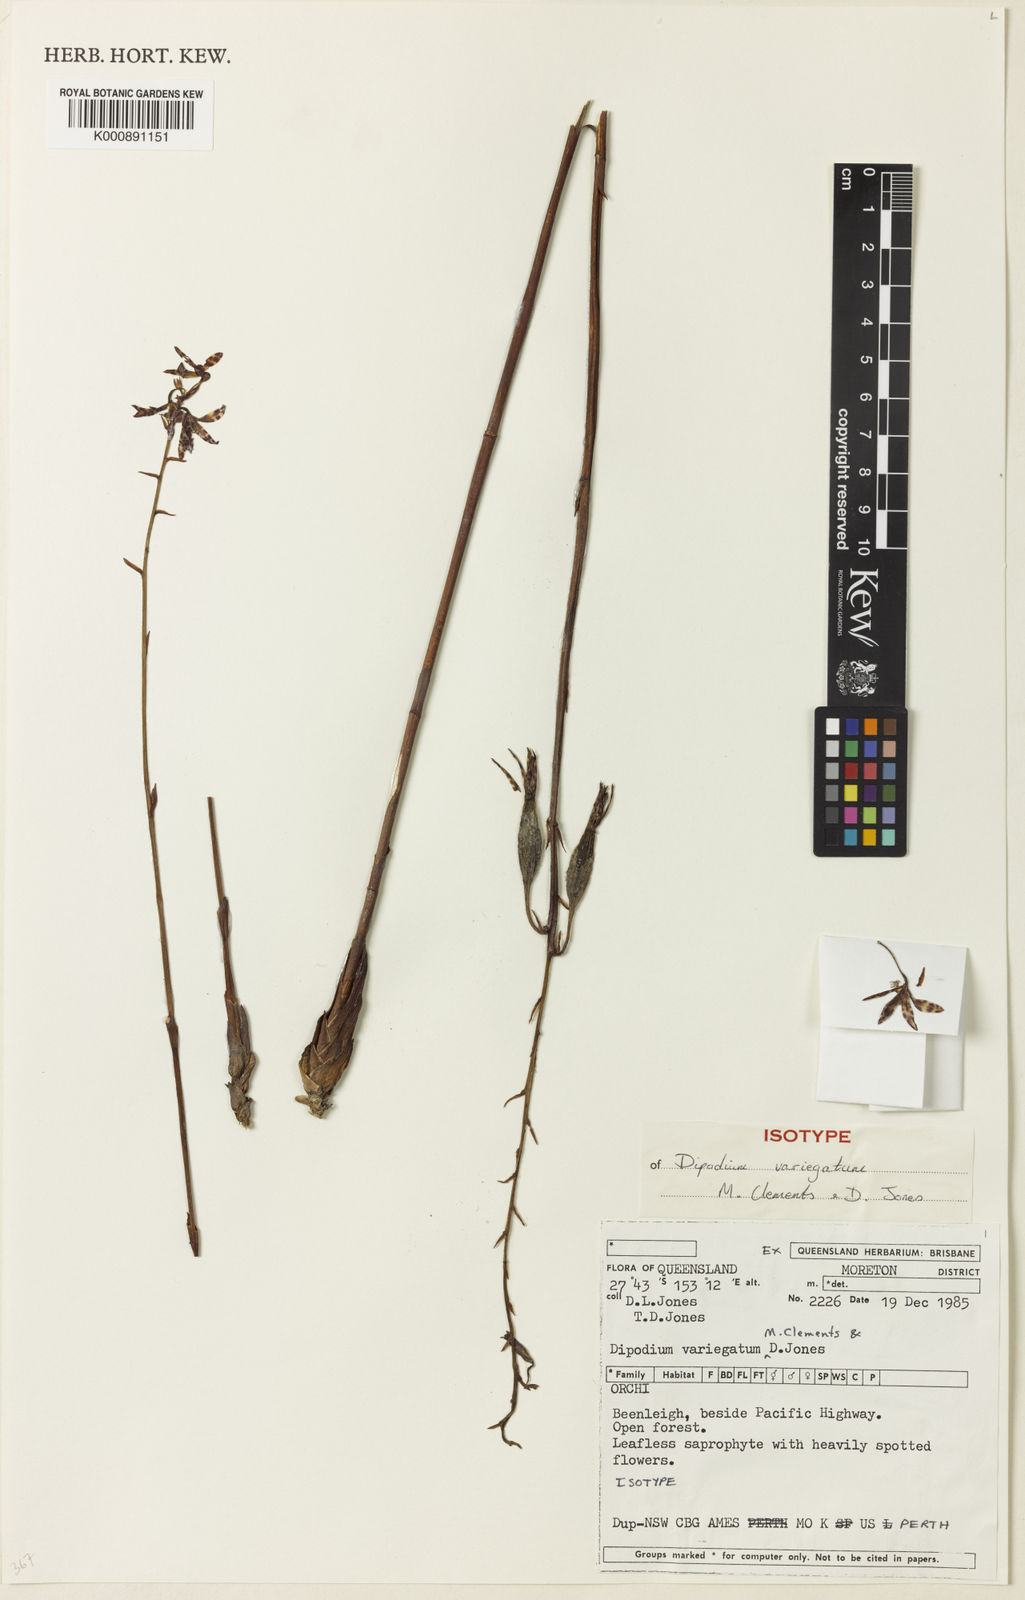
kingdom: Plantae
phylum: Tracheophyta
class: Liliopsida
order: Asparagales
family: Orchidaceae
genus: Dipodium
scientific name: Dipodium variegatum
